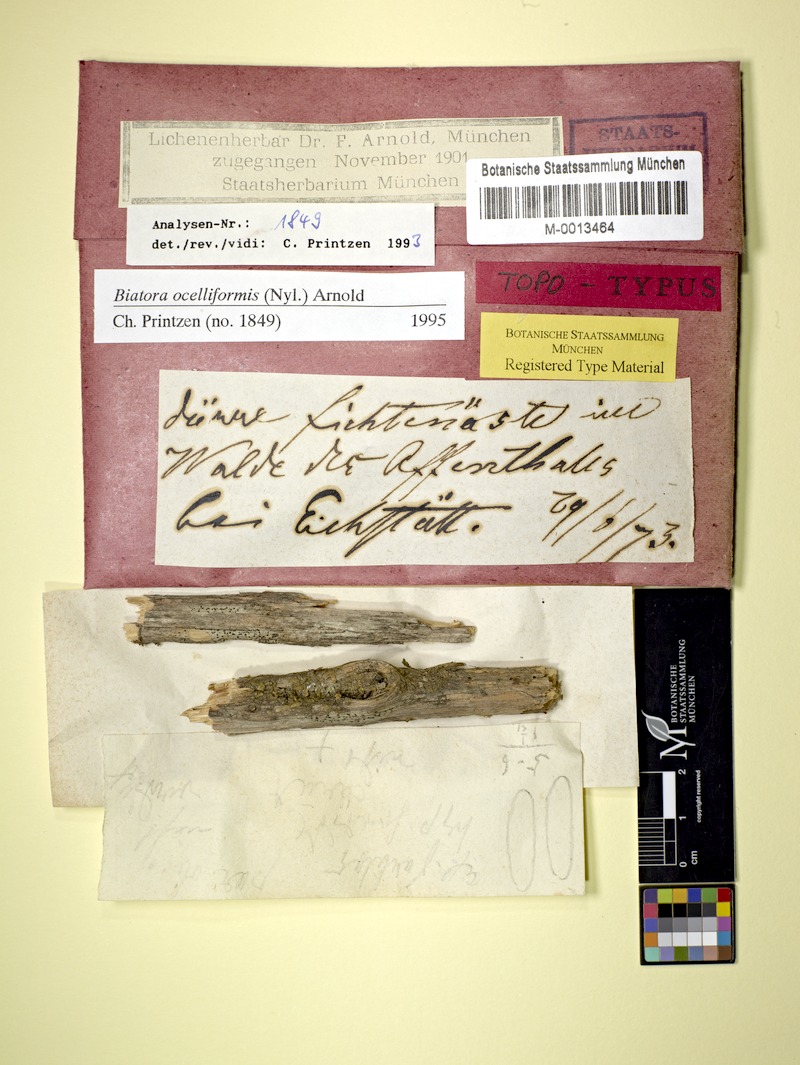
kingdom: Fungi
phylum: Ascomycota
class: Lecanoromycetes
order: Lecanorales
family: Ramalinaceae
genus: Ivanpisutia
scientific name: Ivanpisutia ocelliformis
